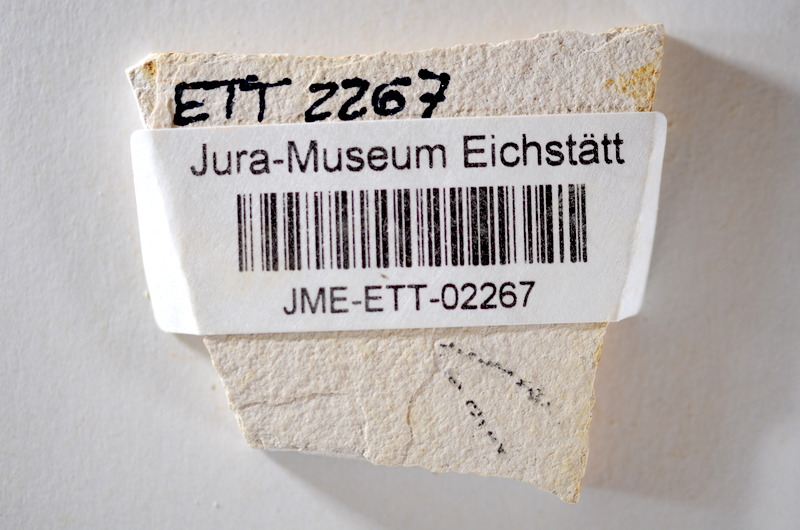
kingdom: Animalia
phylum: Chordata
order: Salmoniformes
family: Orthogonikleithridae
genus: Orthogonikleithrus
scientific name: Orthogonikleithrus hoelli
